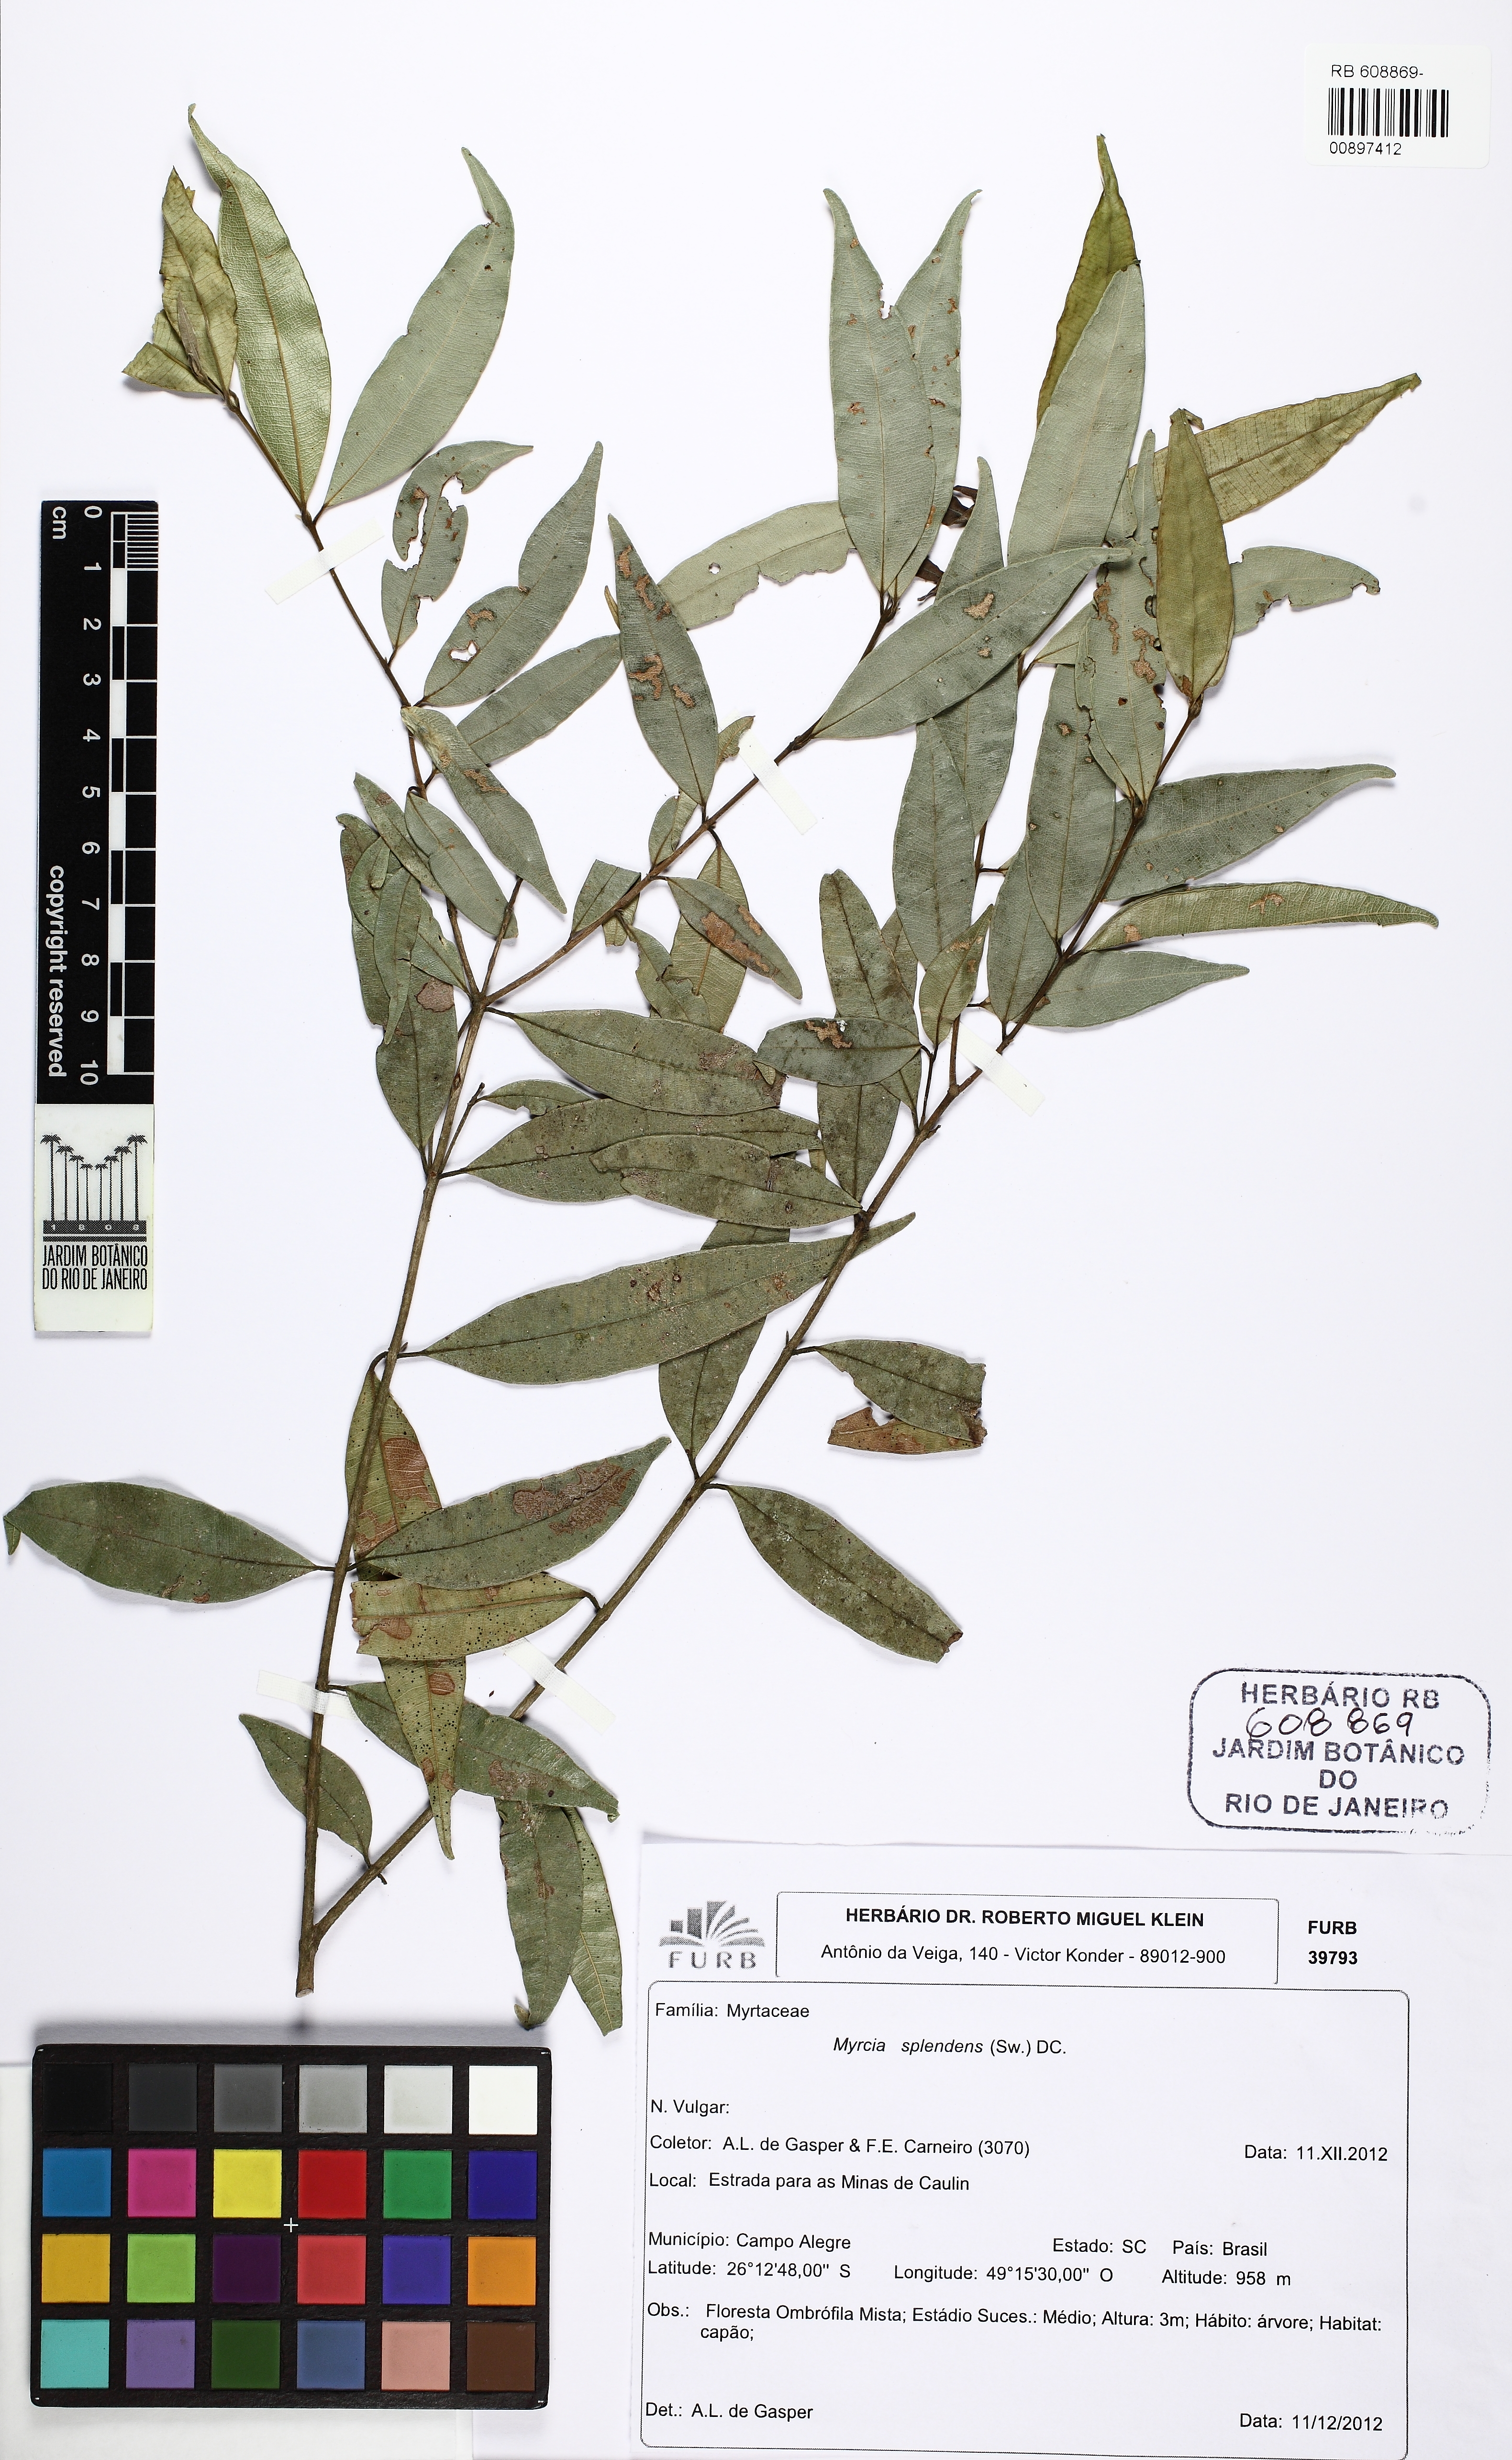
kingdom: Plantae
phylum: Tracheophyta
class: Magnoliopsida
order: Myrtales
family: Myrtaceae
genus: Myrcia
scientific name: Myrcia splendens
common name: Surinam cherry
